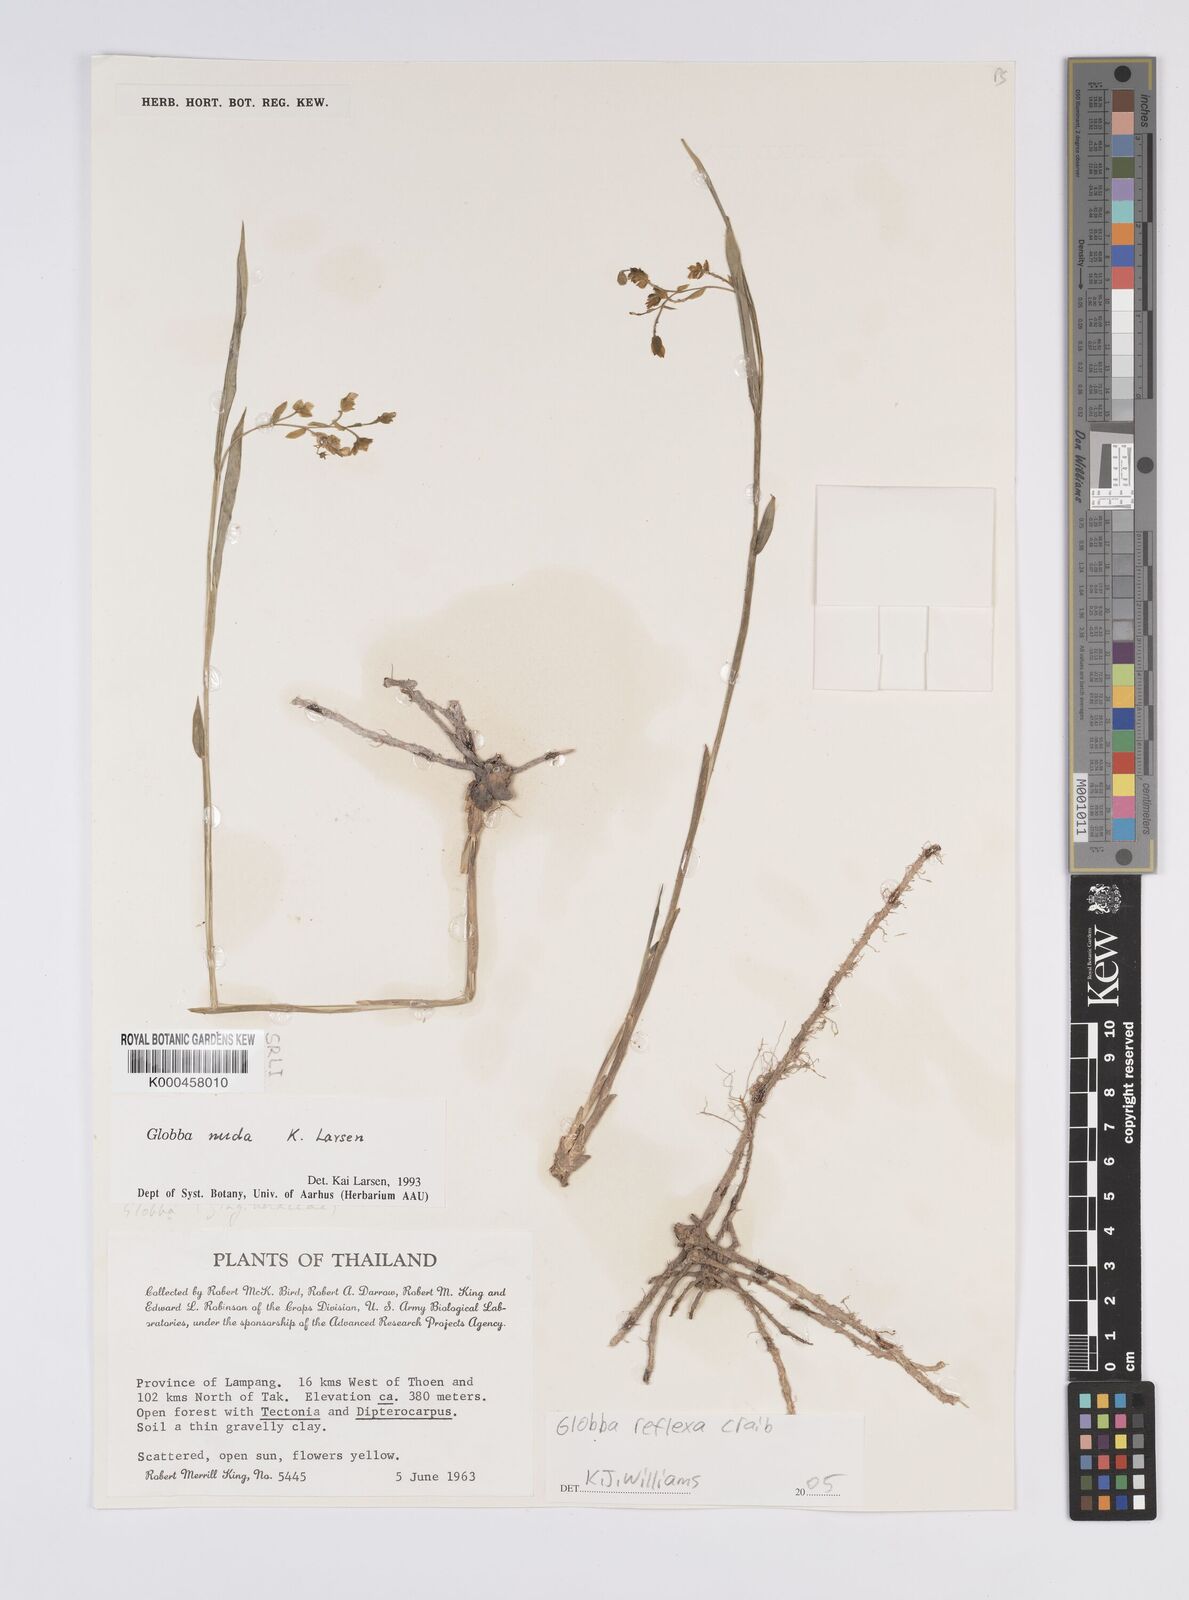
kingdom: Plantae
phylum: Tracheophyta
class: Liliopsida
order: Zingiberales
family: Zingiberaceae
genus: Globba
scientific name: Globba
